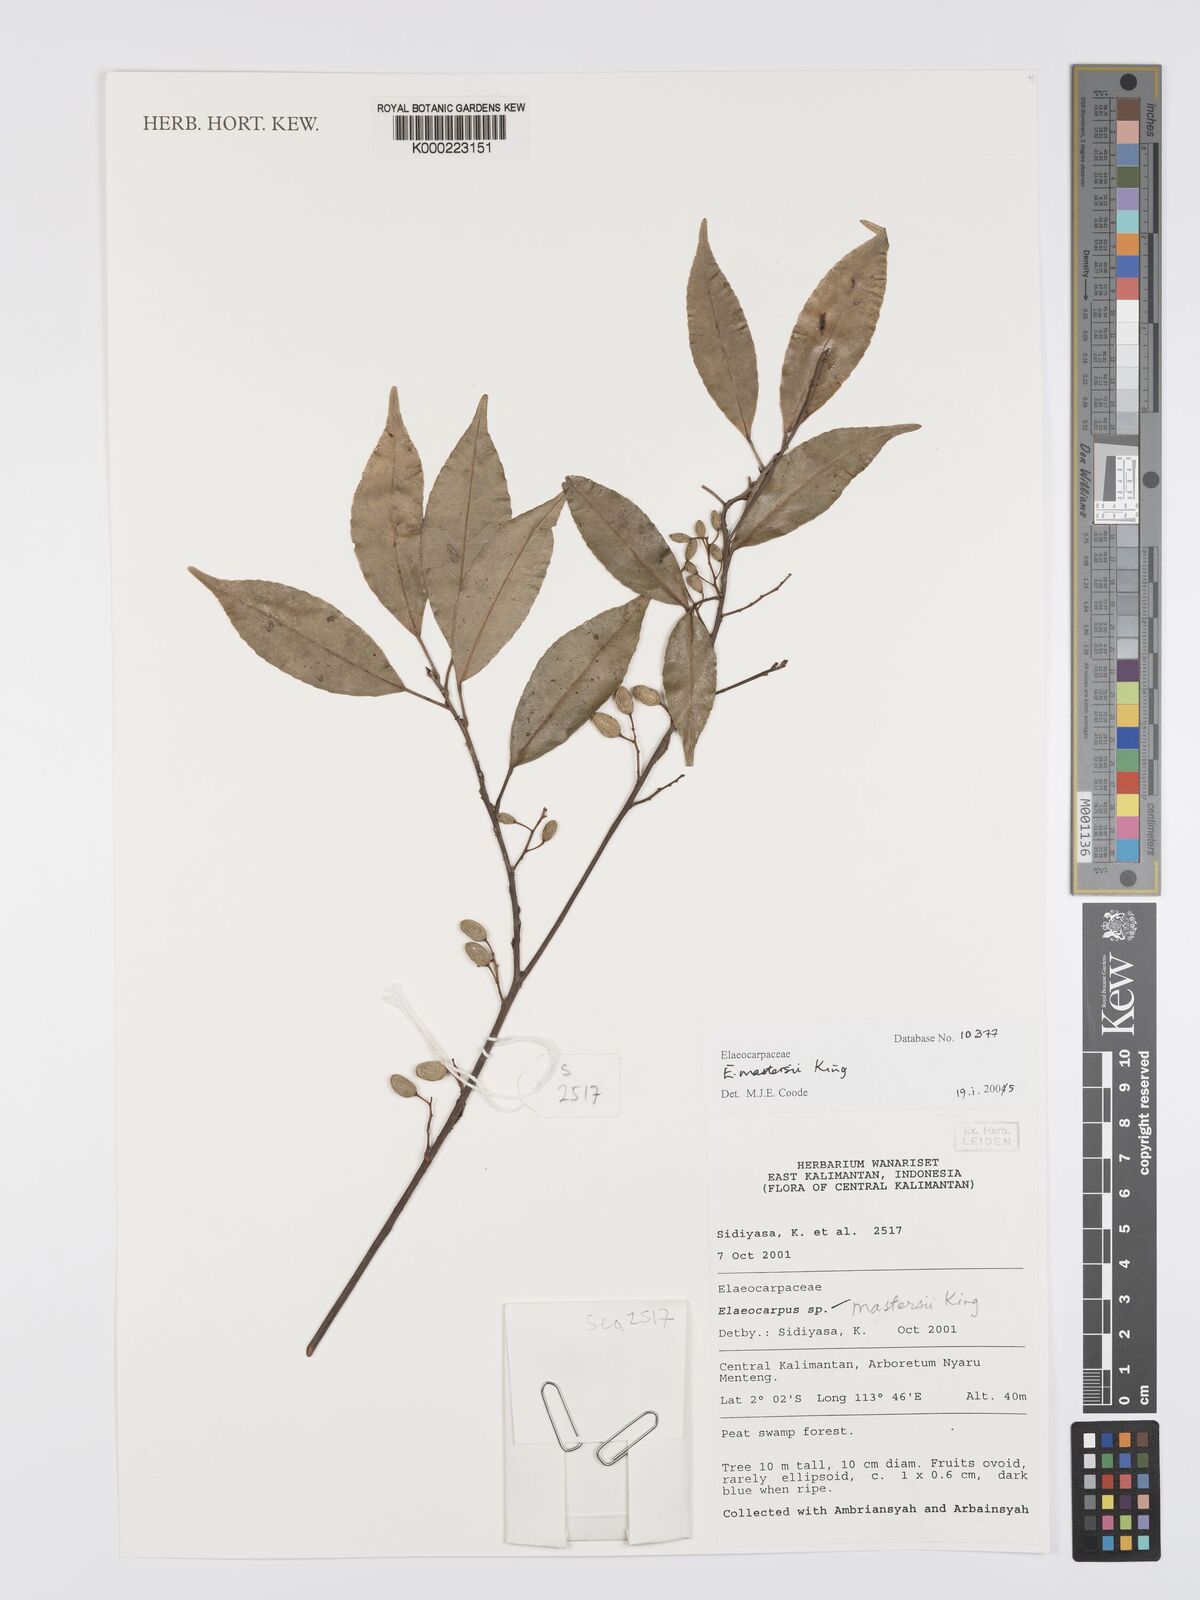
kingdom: Plantae
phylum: Tracheophyta
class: Magnoliopsida
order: Oxalidales
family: Elaeocarpaceae
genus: Elaeocarpus
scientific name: Elaeocarpus mastersii
